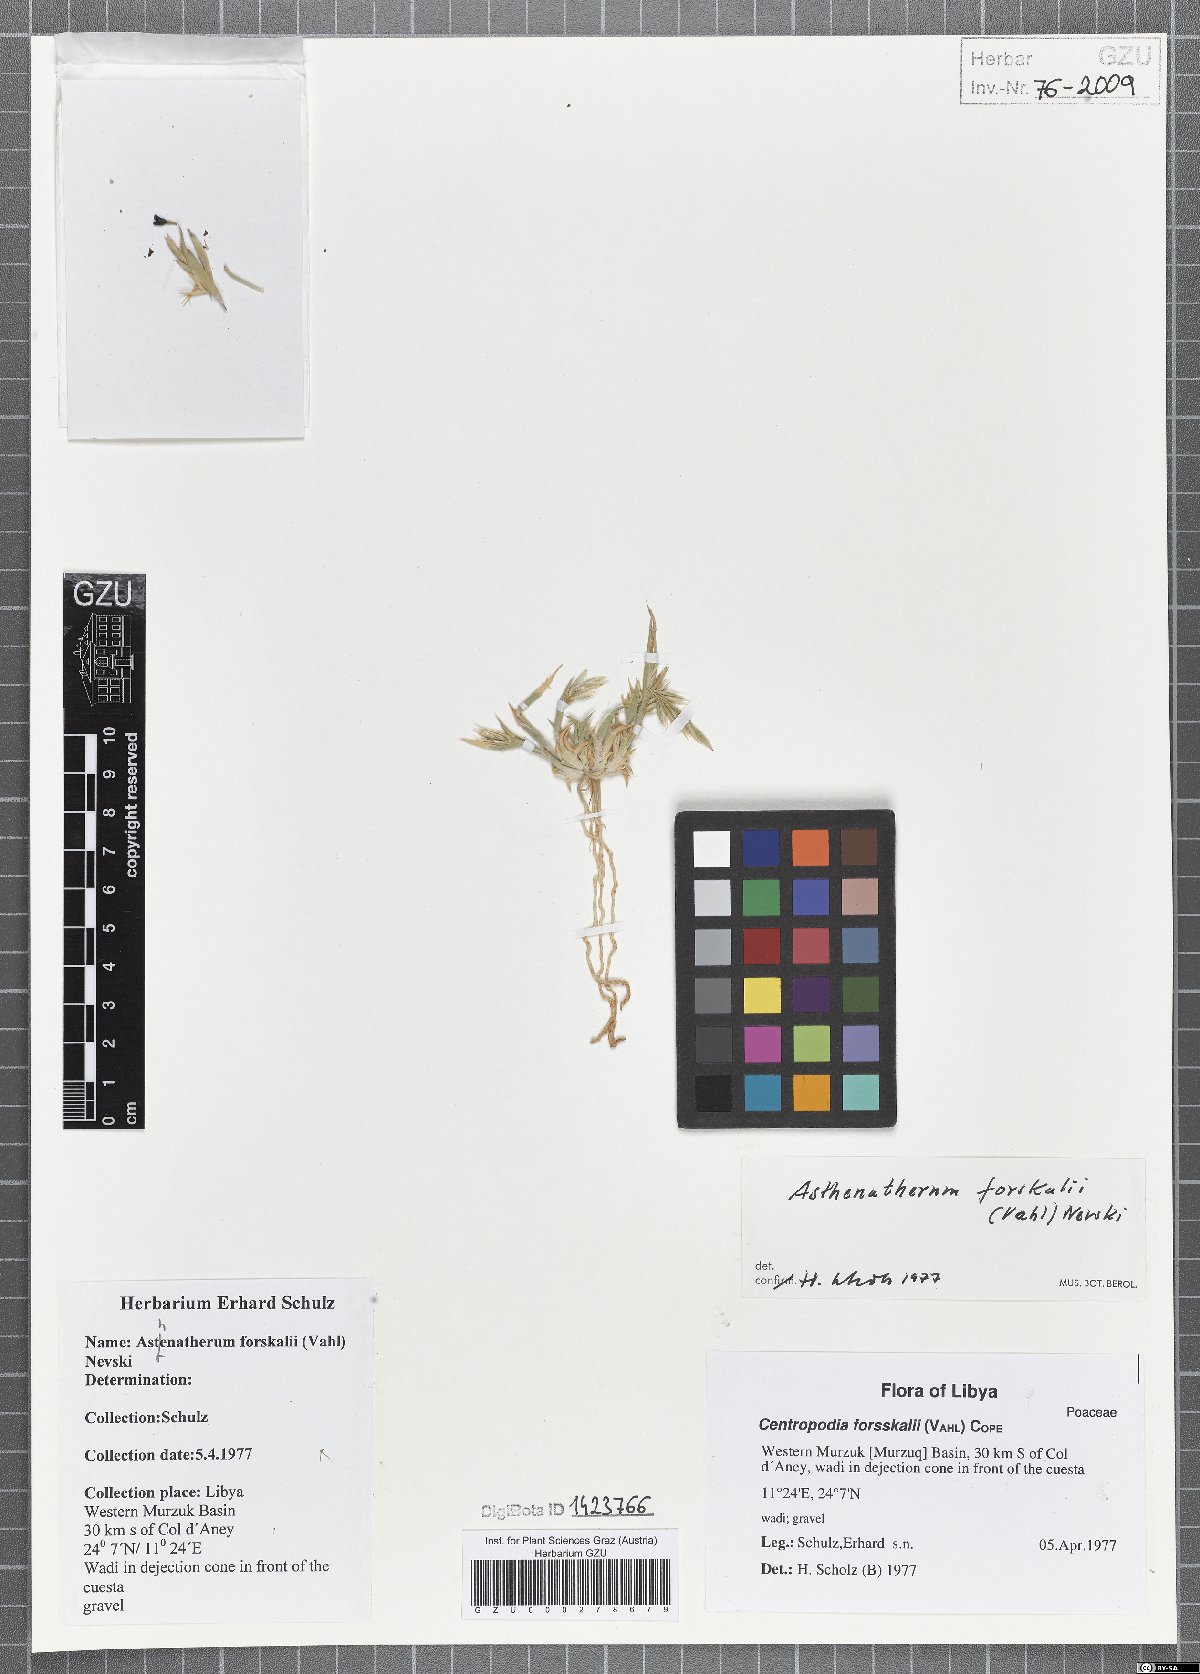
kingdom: Plantae
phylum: Tracheophyta
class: Liliopsida
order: Poales
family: Poaceae
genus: Centropodia
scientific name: Centropodia forsskalii
